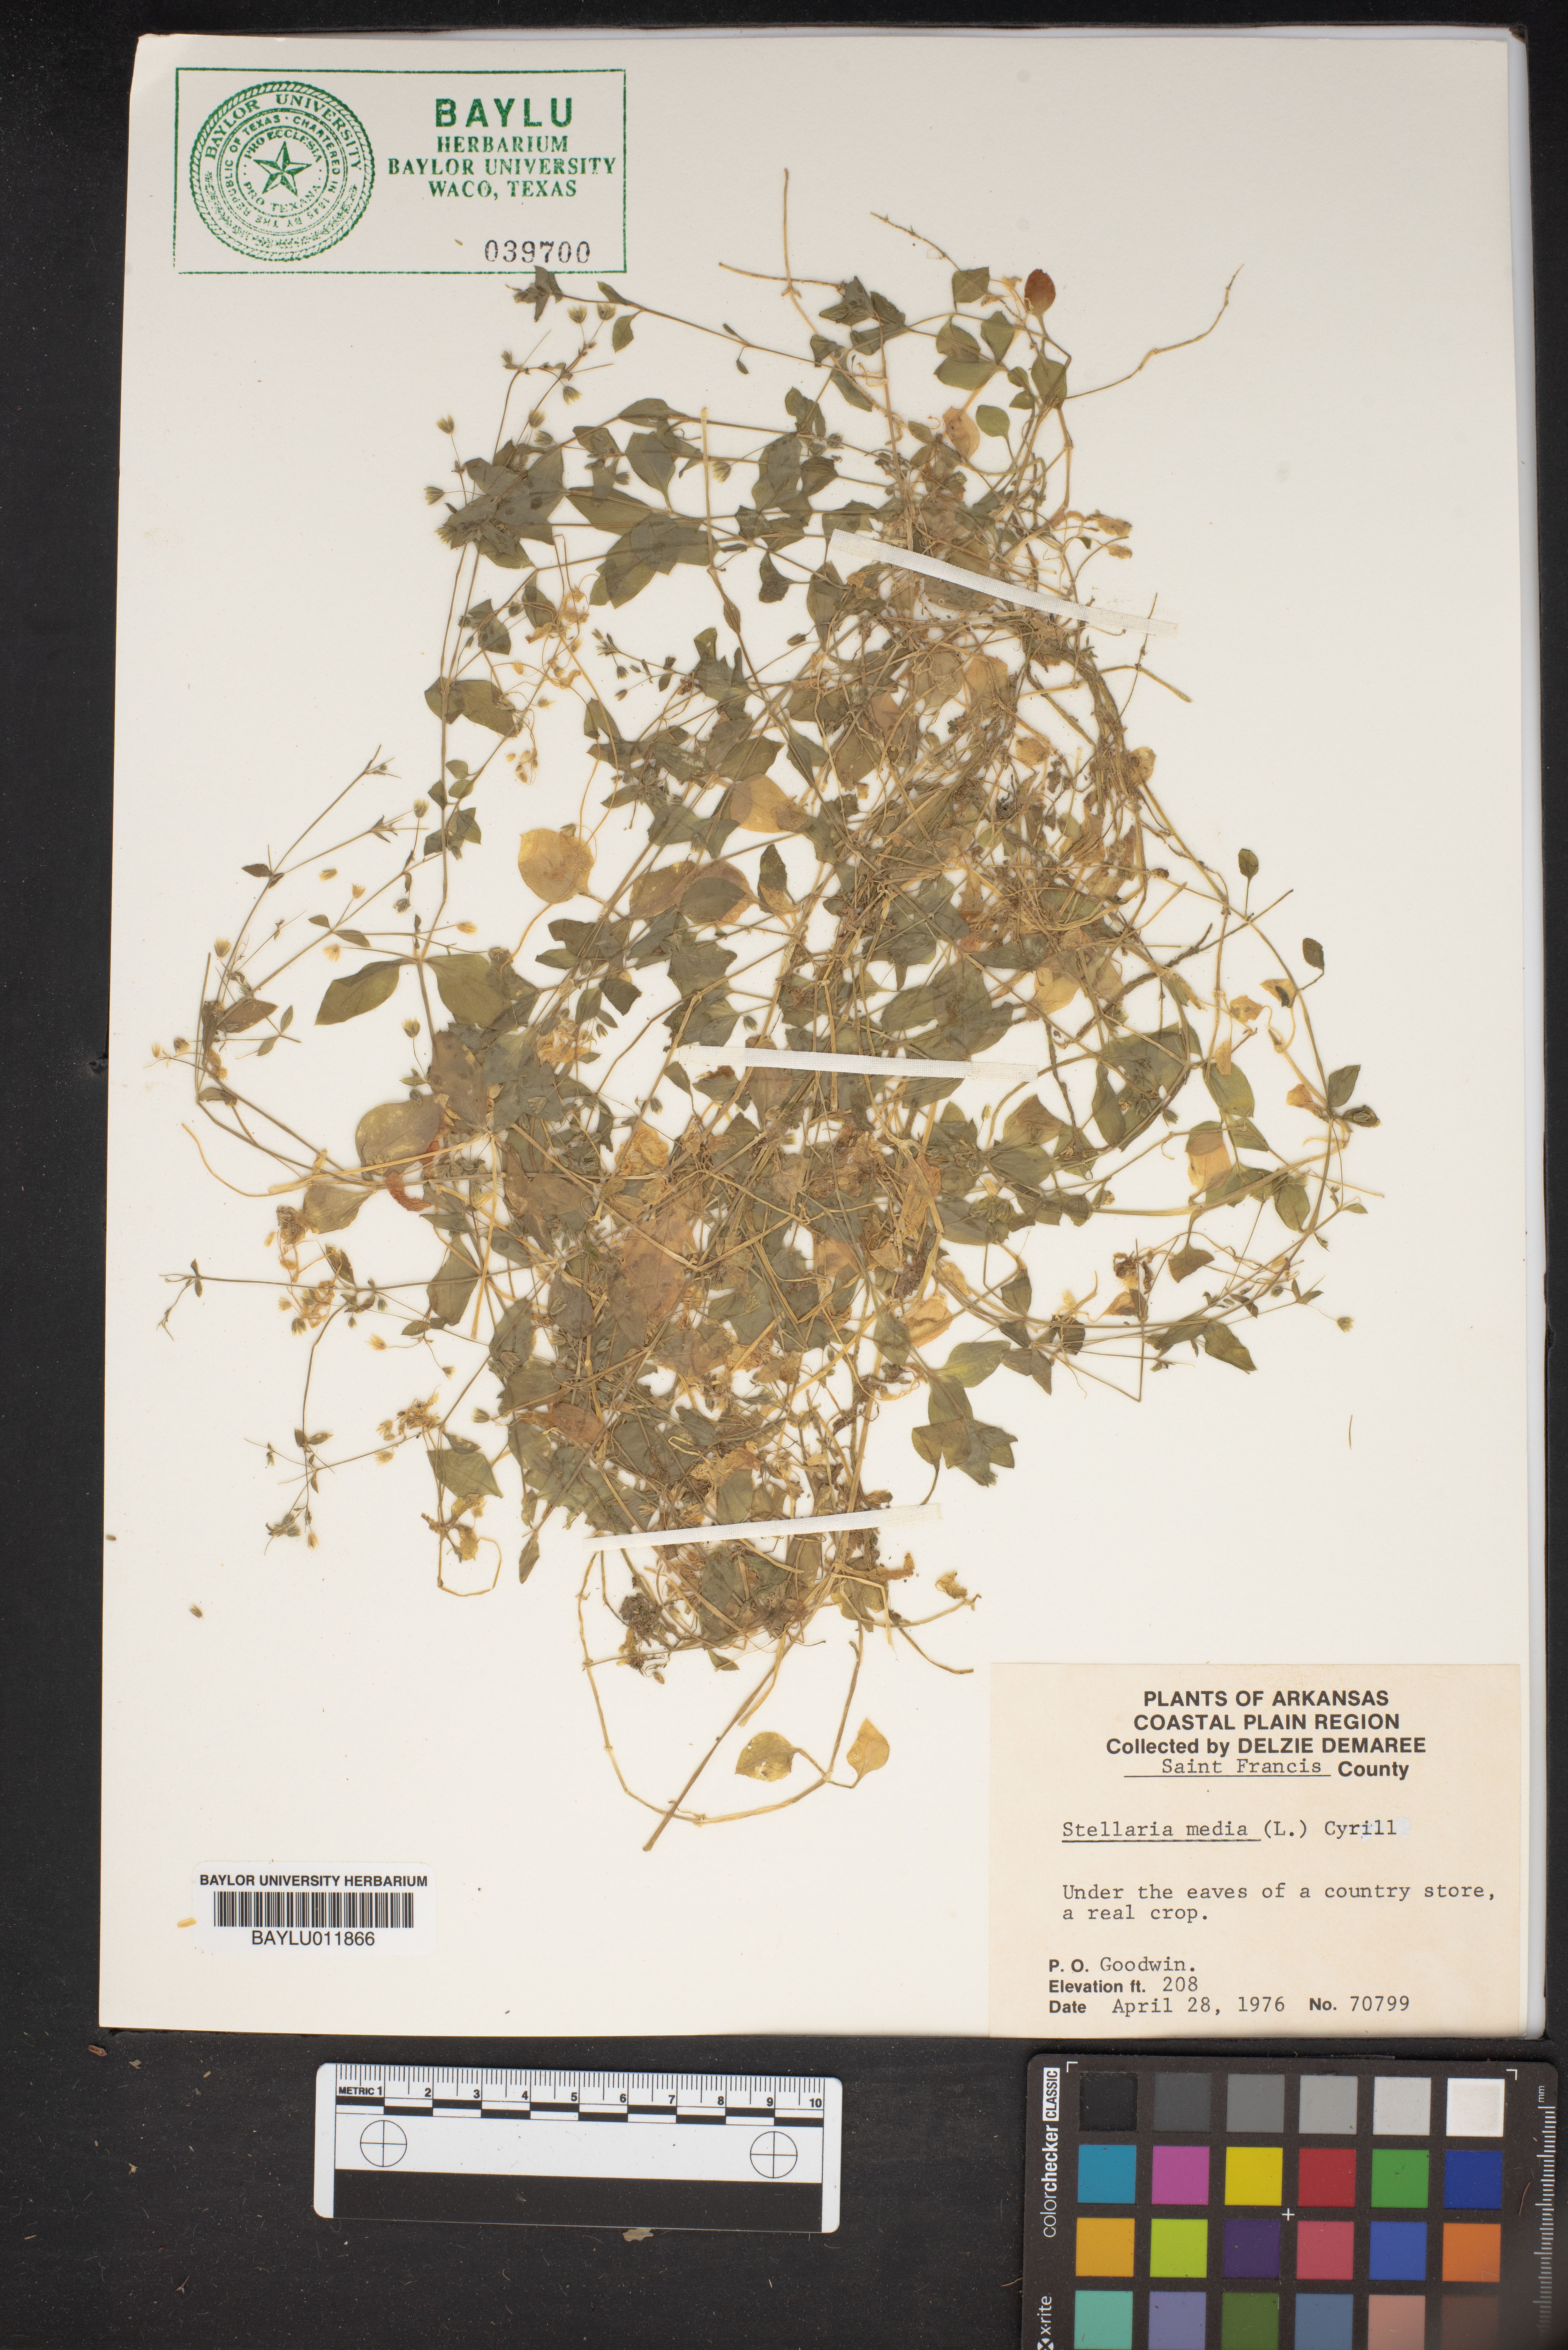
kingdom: Plantae
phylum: Tracheophyta
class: Magnoliopsida
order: Caryophyllales
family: Caryophyllaceae
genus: Stellaria
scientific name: Stellaria media
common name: Common chickweed
